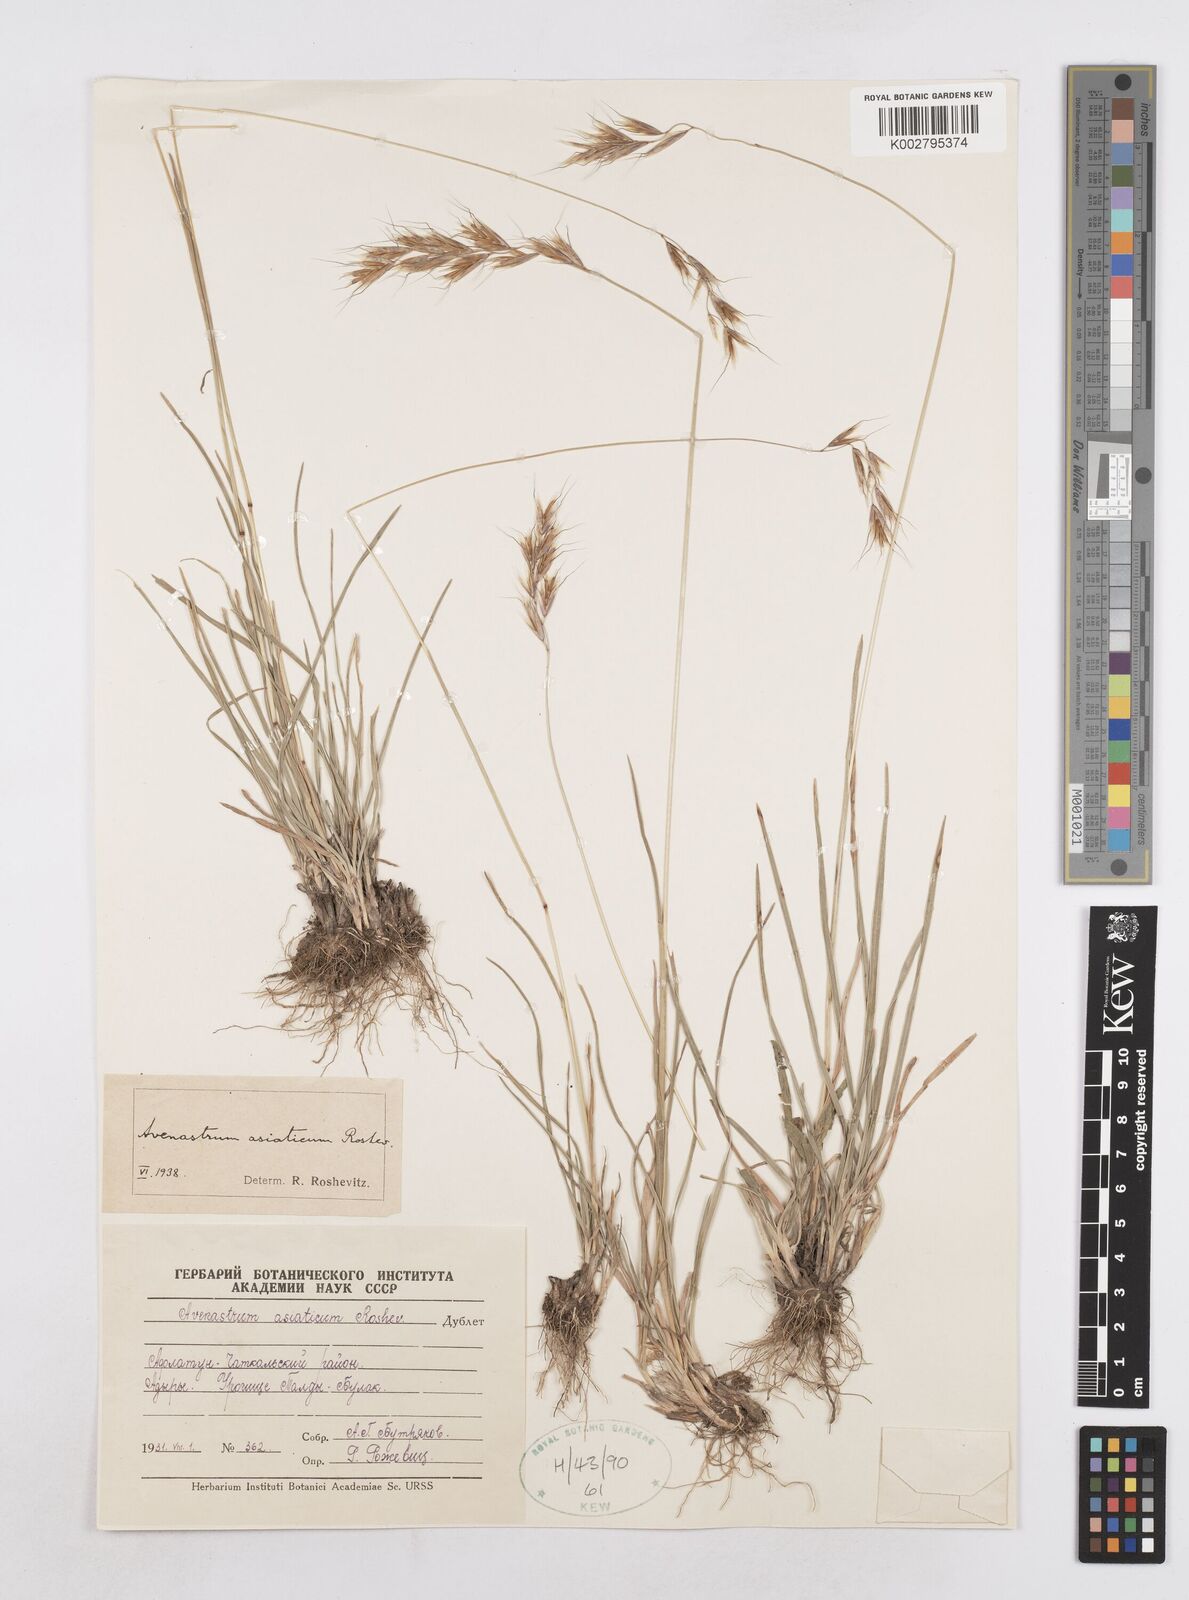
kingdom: Plantae
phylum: Tracheophyta
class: Liliopsida
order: Poales
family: Poaceae
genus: Helictotrichon
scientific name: Helictotrichon
